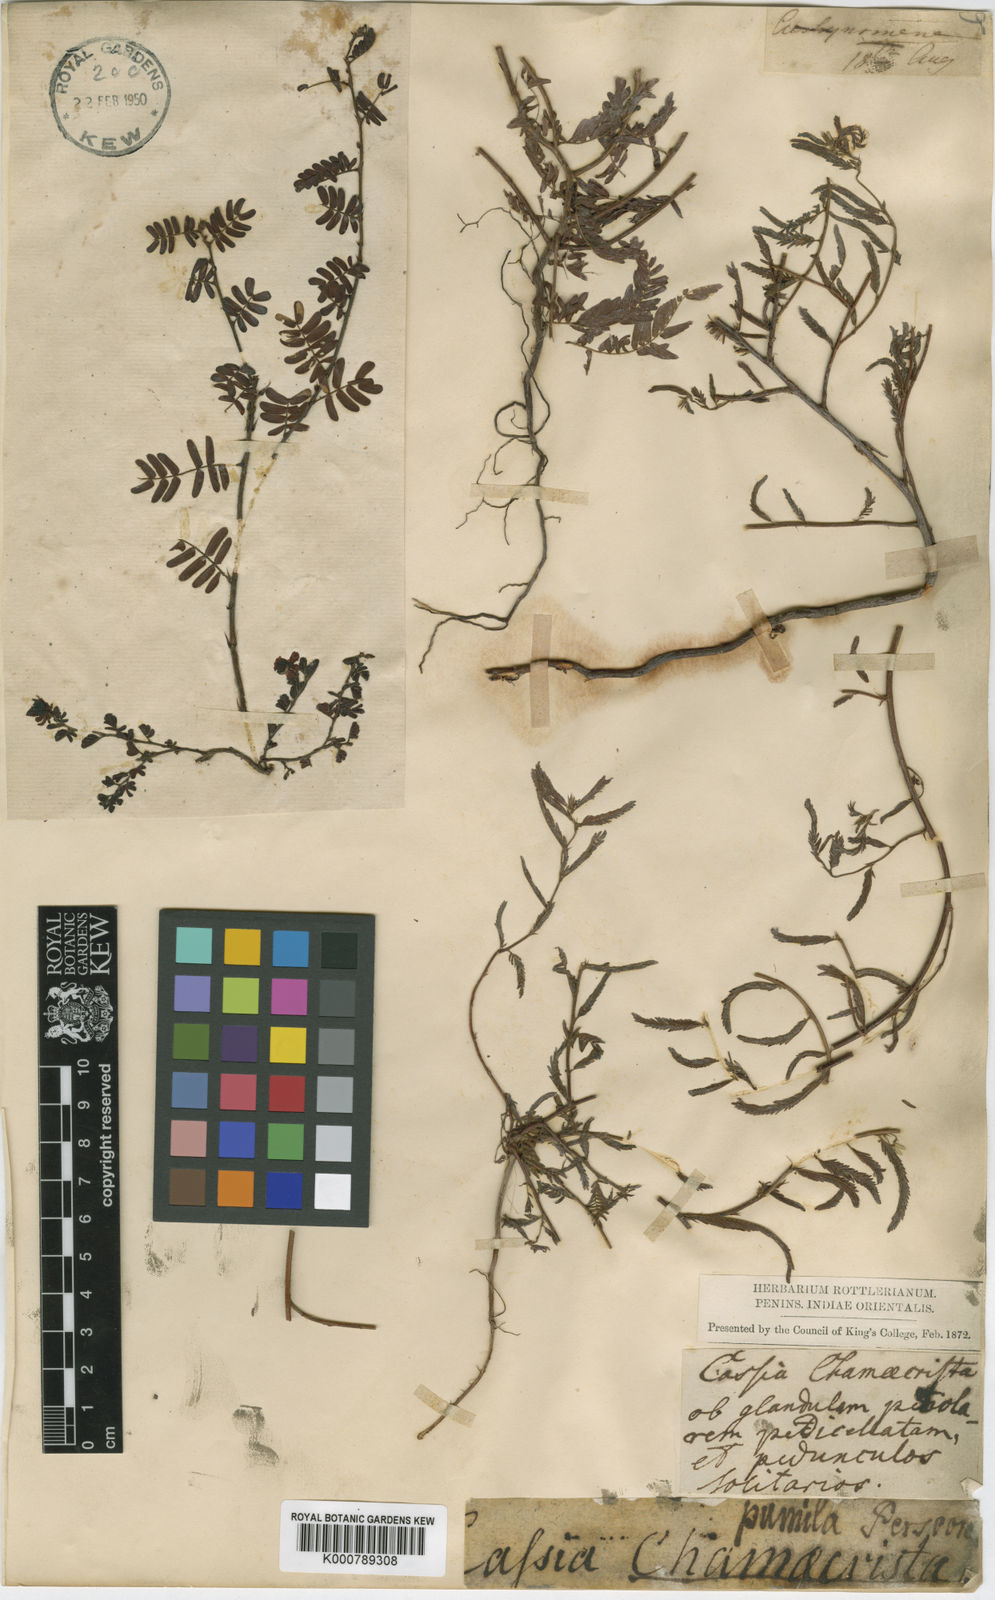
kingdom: Plantae
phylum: Tracheophyta
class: Magnoliopsida
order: Fabales
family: Fabaceae
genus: Chamaecrista
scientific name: Chamaecrista pumila
